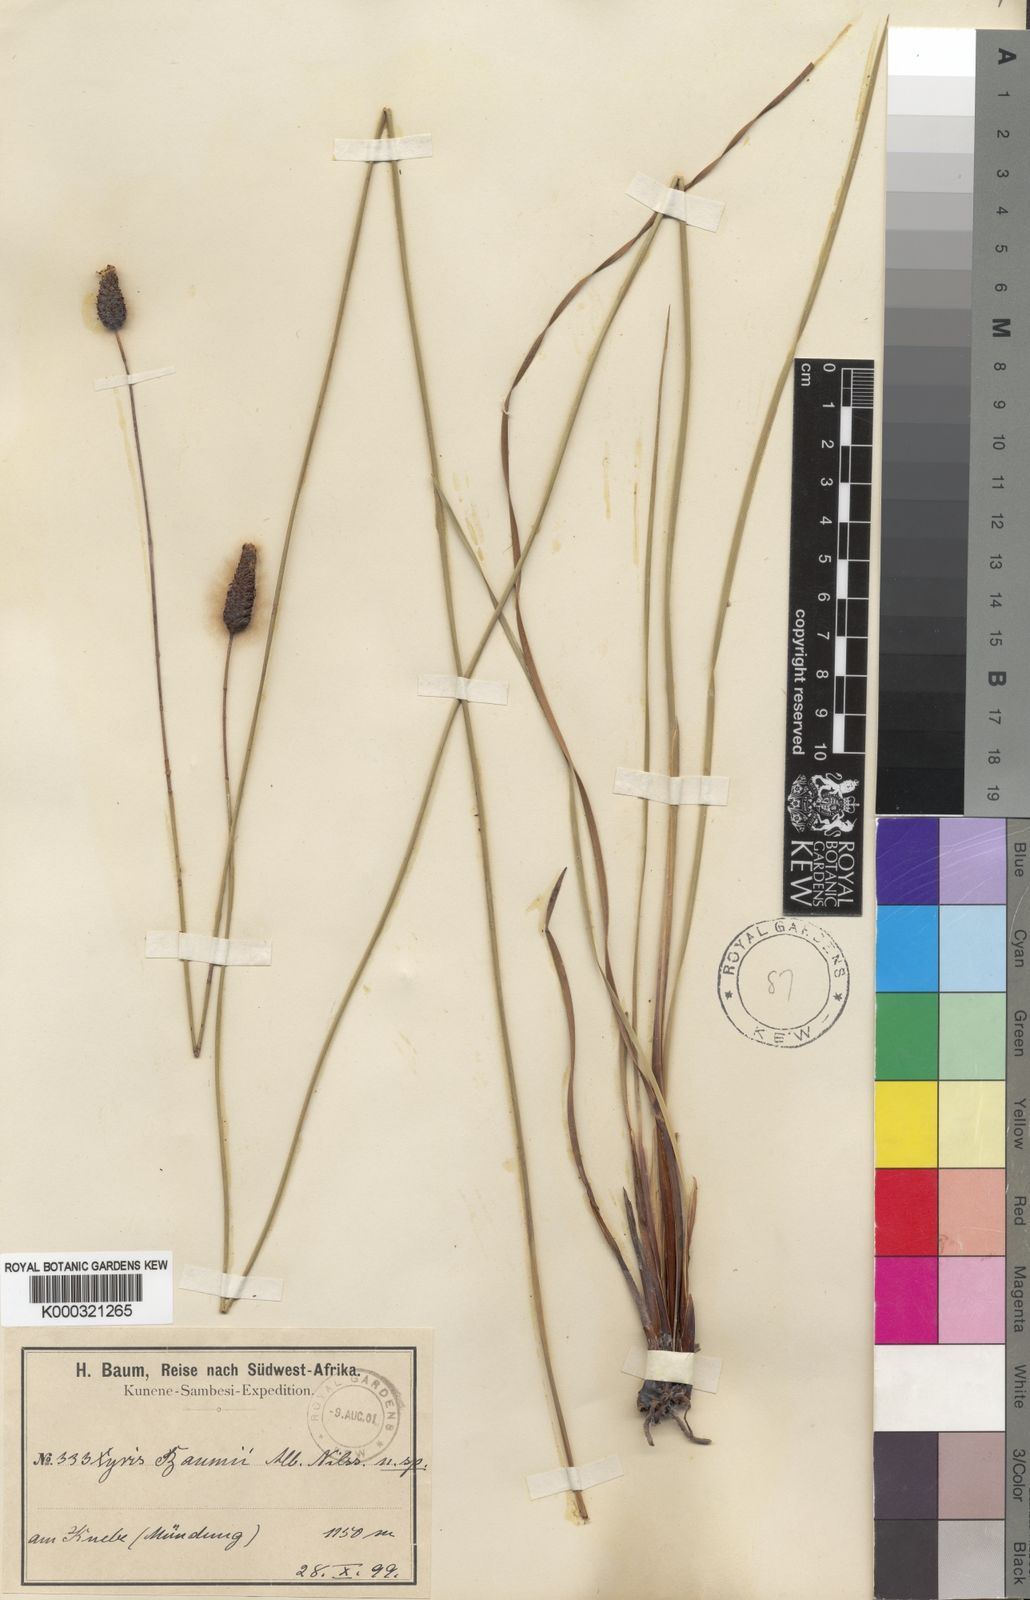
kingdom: Plantae
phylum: Tracheophyta
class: Liliopsida
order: Poales
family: Xyridaceae
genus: Xyris
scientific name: Xyris
